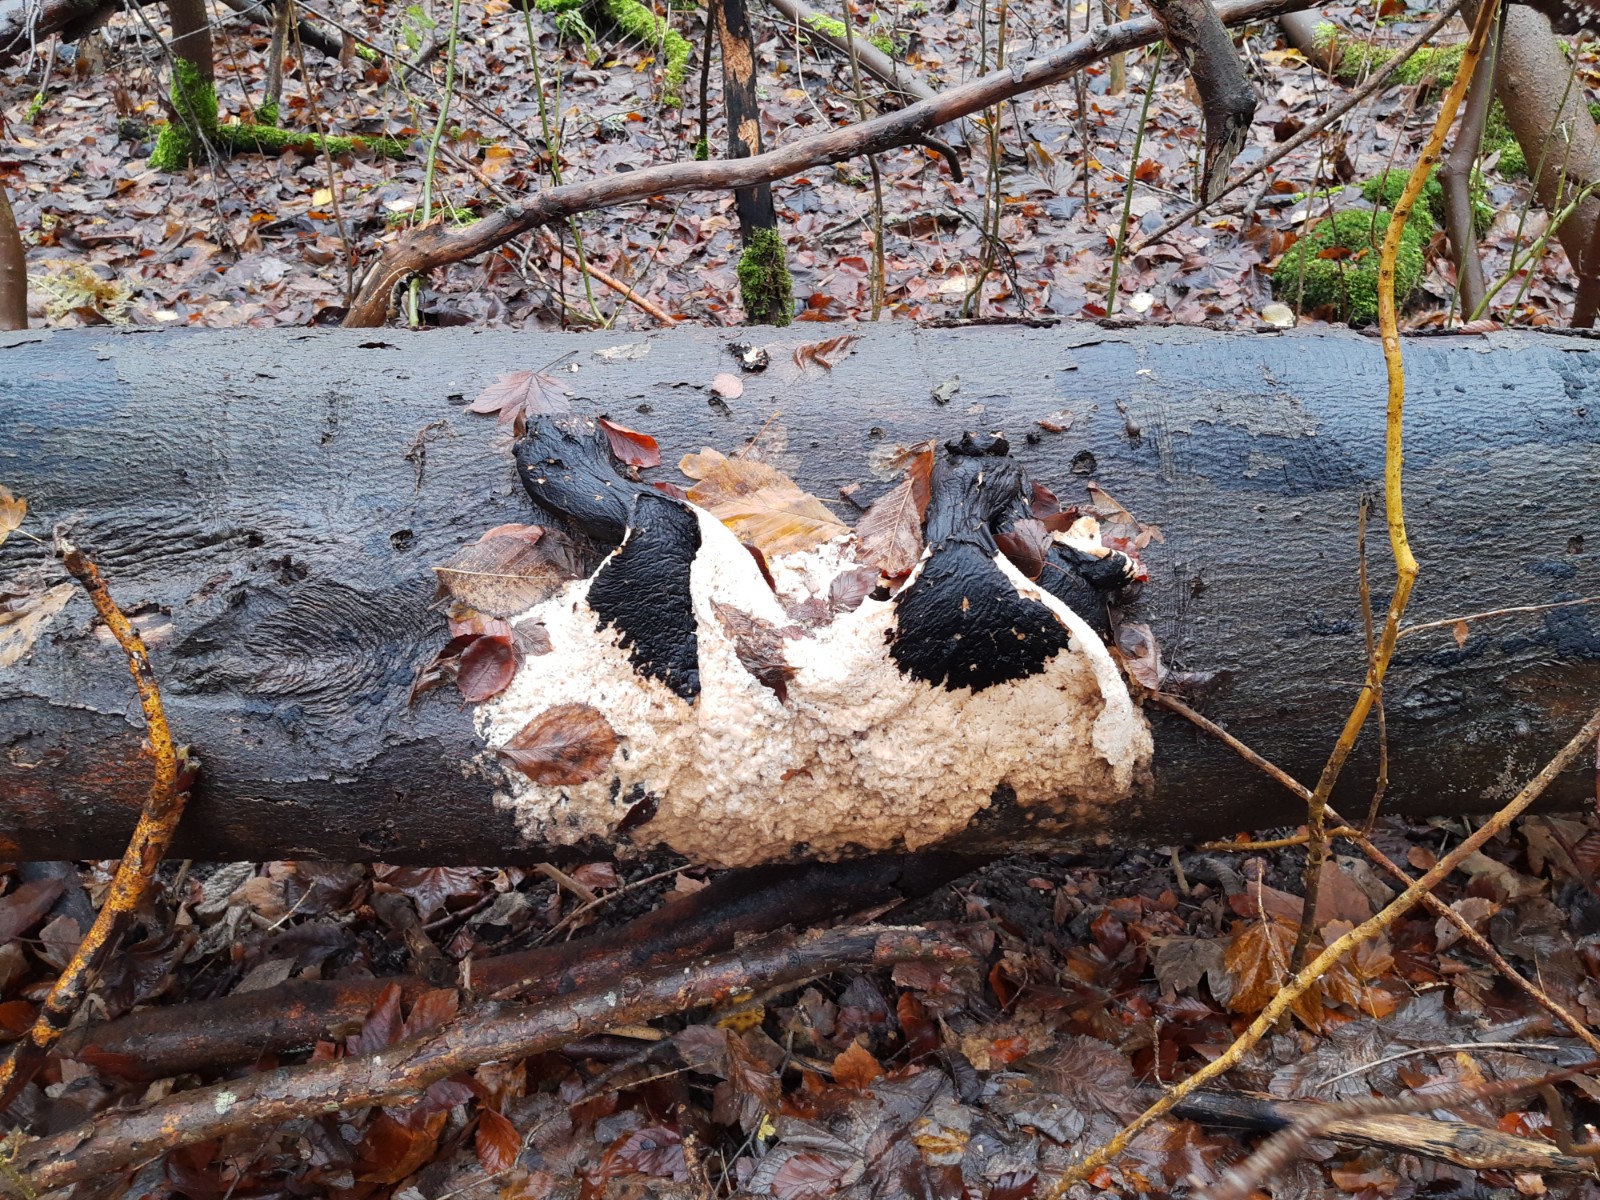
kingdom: Fungi
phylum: Basidiomycota
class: Agaricomycetes
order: Polyporales
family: Polyporaceae
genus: Cerioporus
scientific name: Cerioporus squamosus
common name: skællet stilkporesvamp
